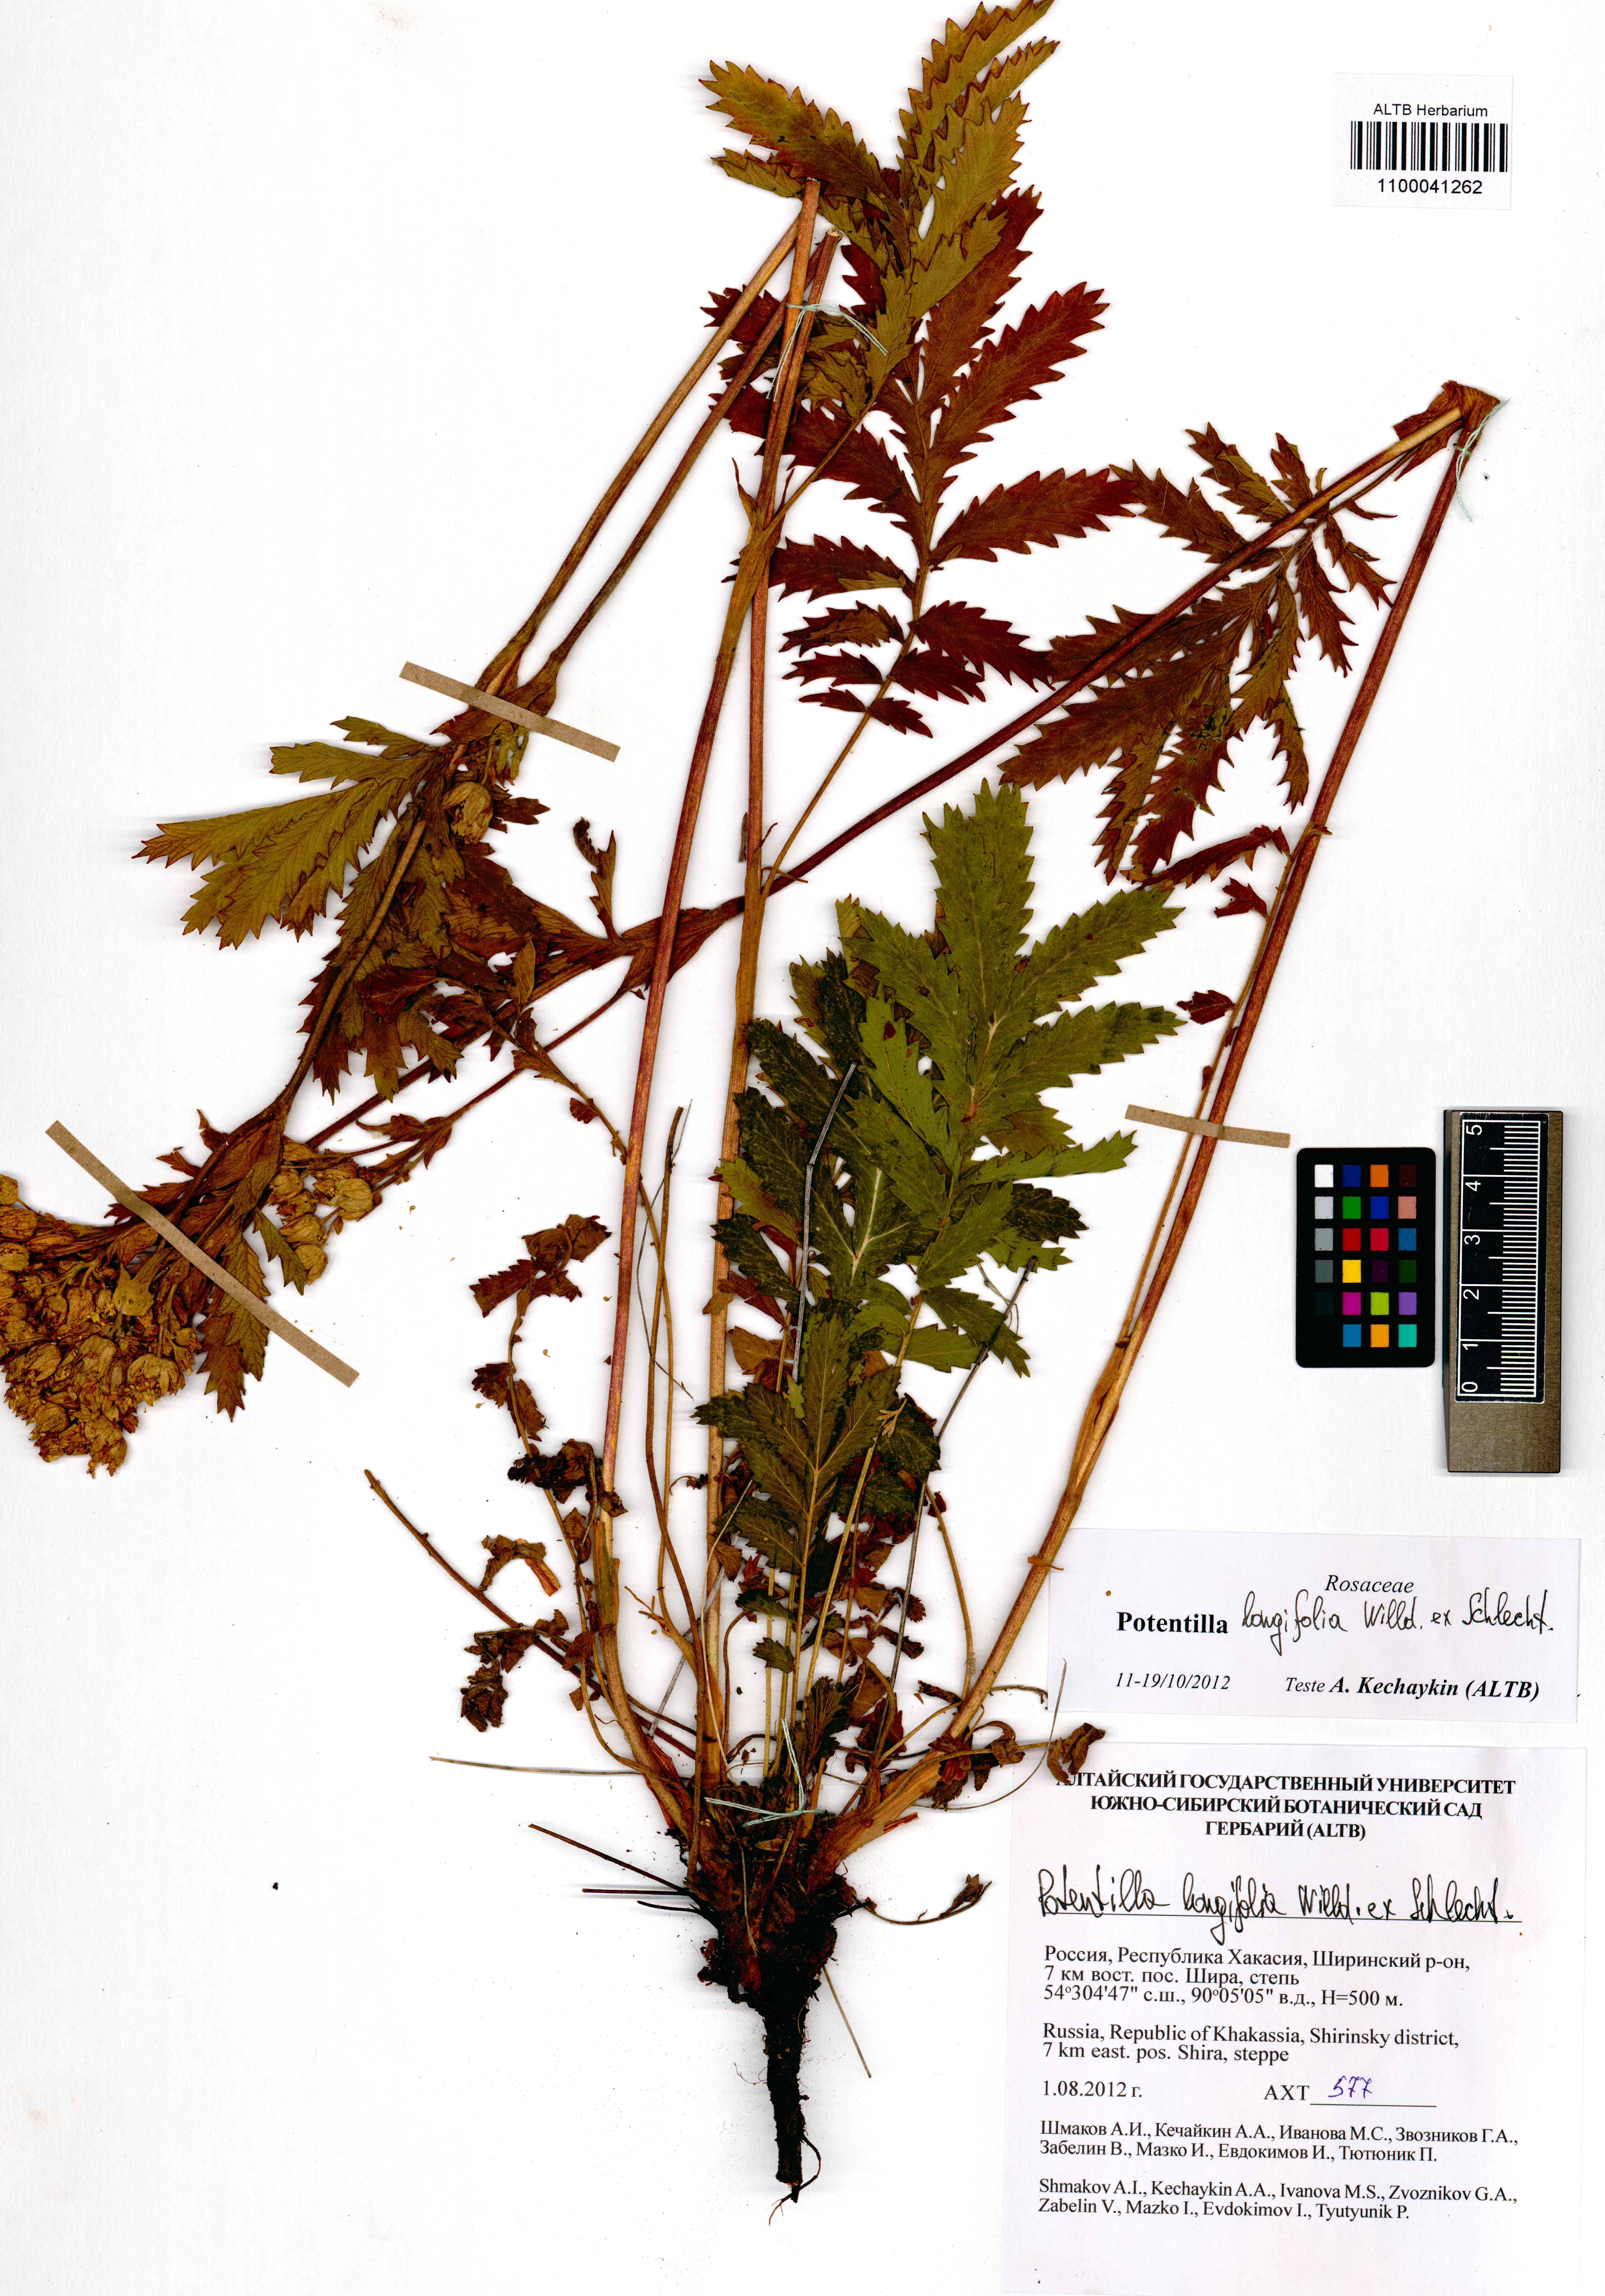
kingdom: Plantae
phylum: Tracheophyta
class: Magnoliopsida
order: Rosales
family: Rosaceae
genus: Potentilla
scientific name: Potentilla longifolia
